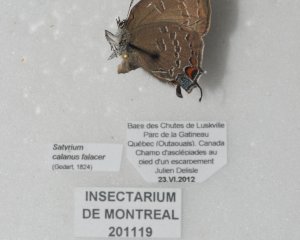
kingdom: Animalia
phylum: Arthropoda
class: Insecta
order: Lepidoptera
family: Lycaenidae
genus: Satyrium
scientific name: Satyrium calanus
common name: Banded Hairstreak
